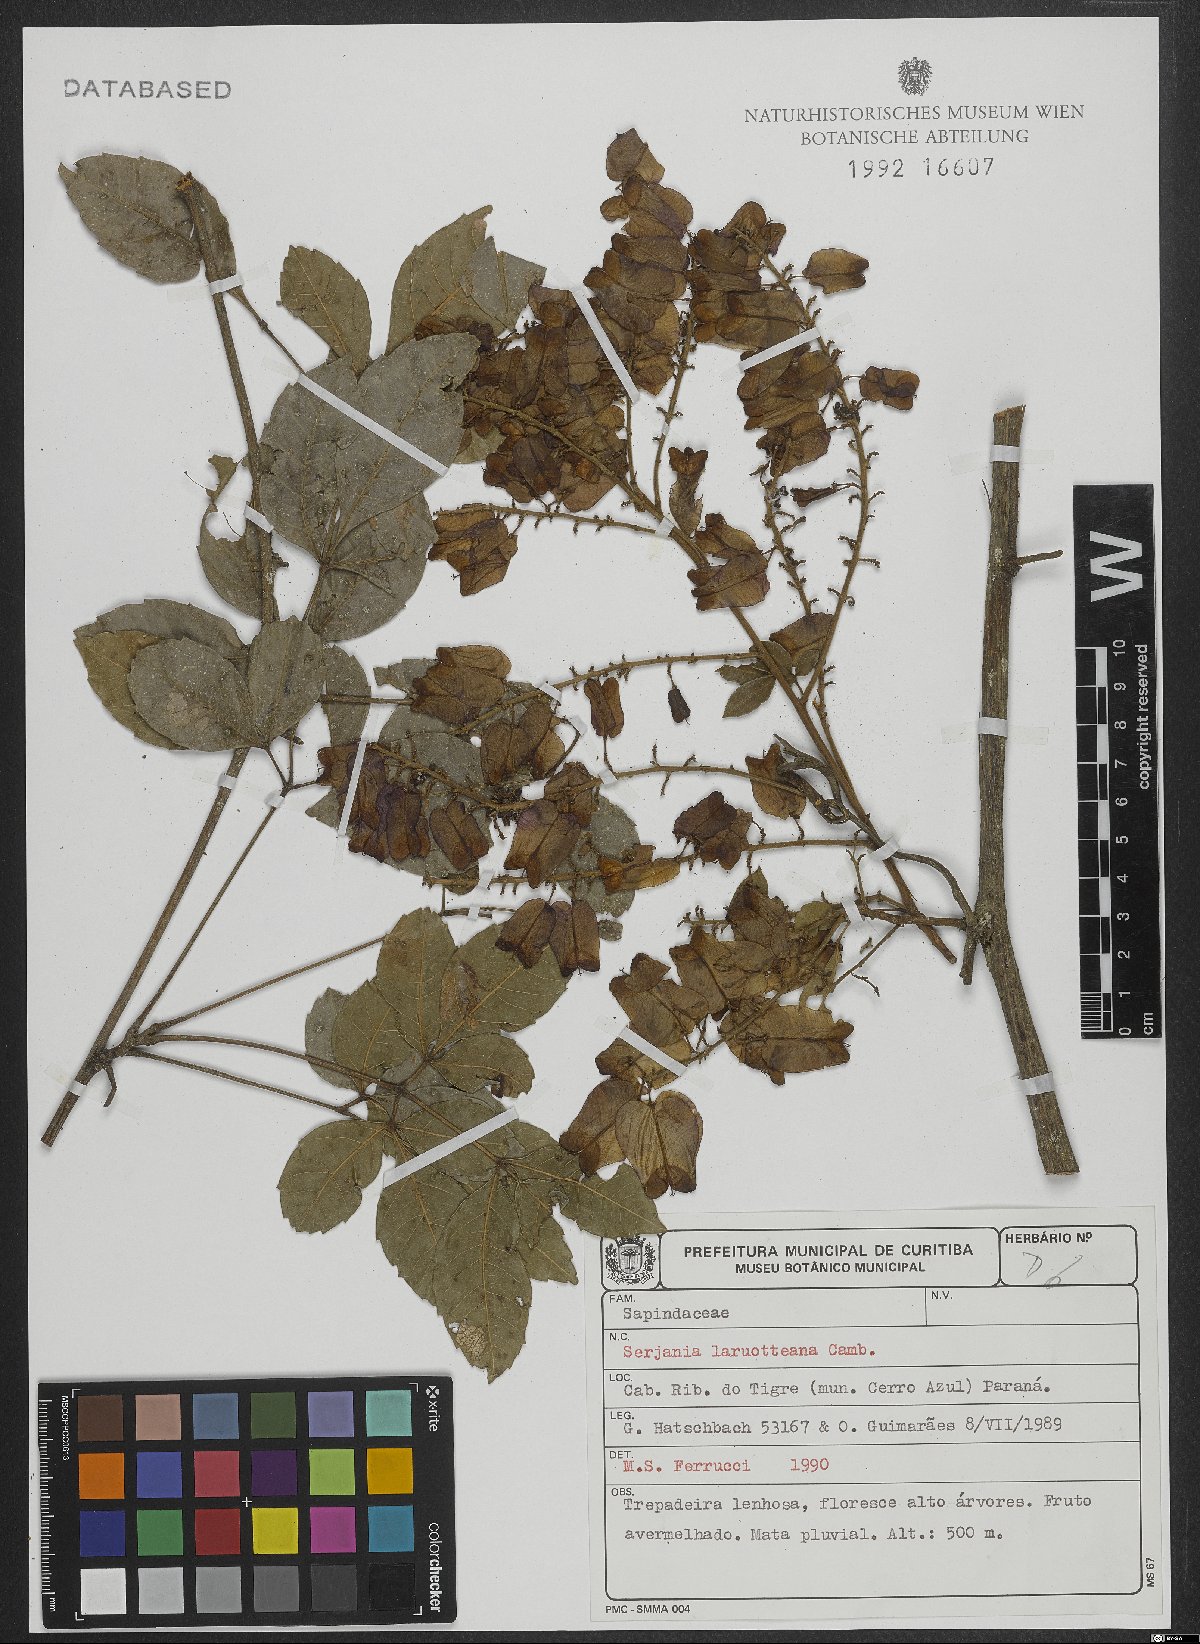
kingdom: Plantae
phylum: Tracheophyta
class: Magnoliopsida
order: Sapindales
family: Sapindaceae
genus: Serjania
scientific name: Serjania laruotteana
